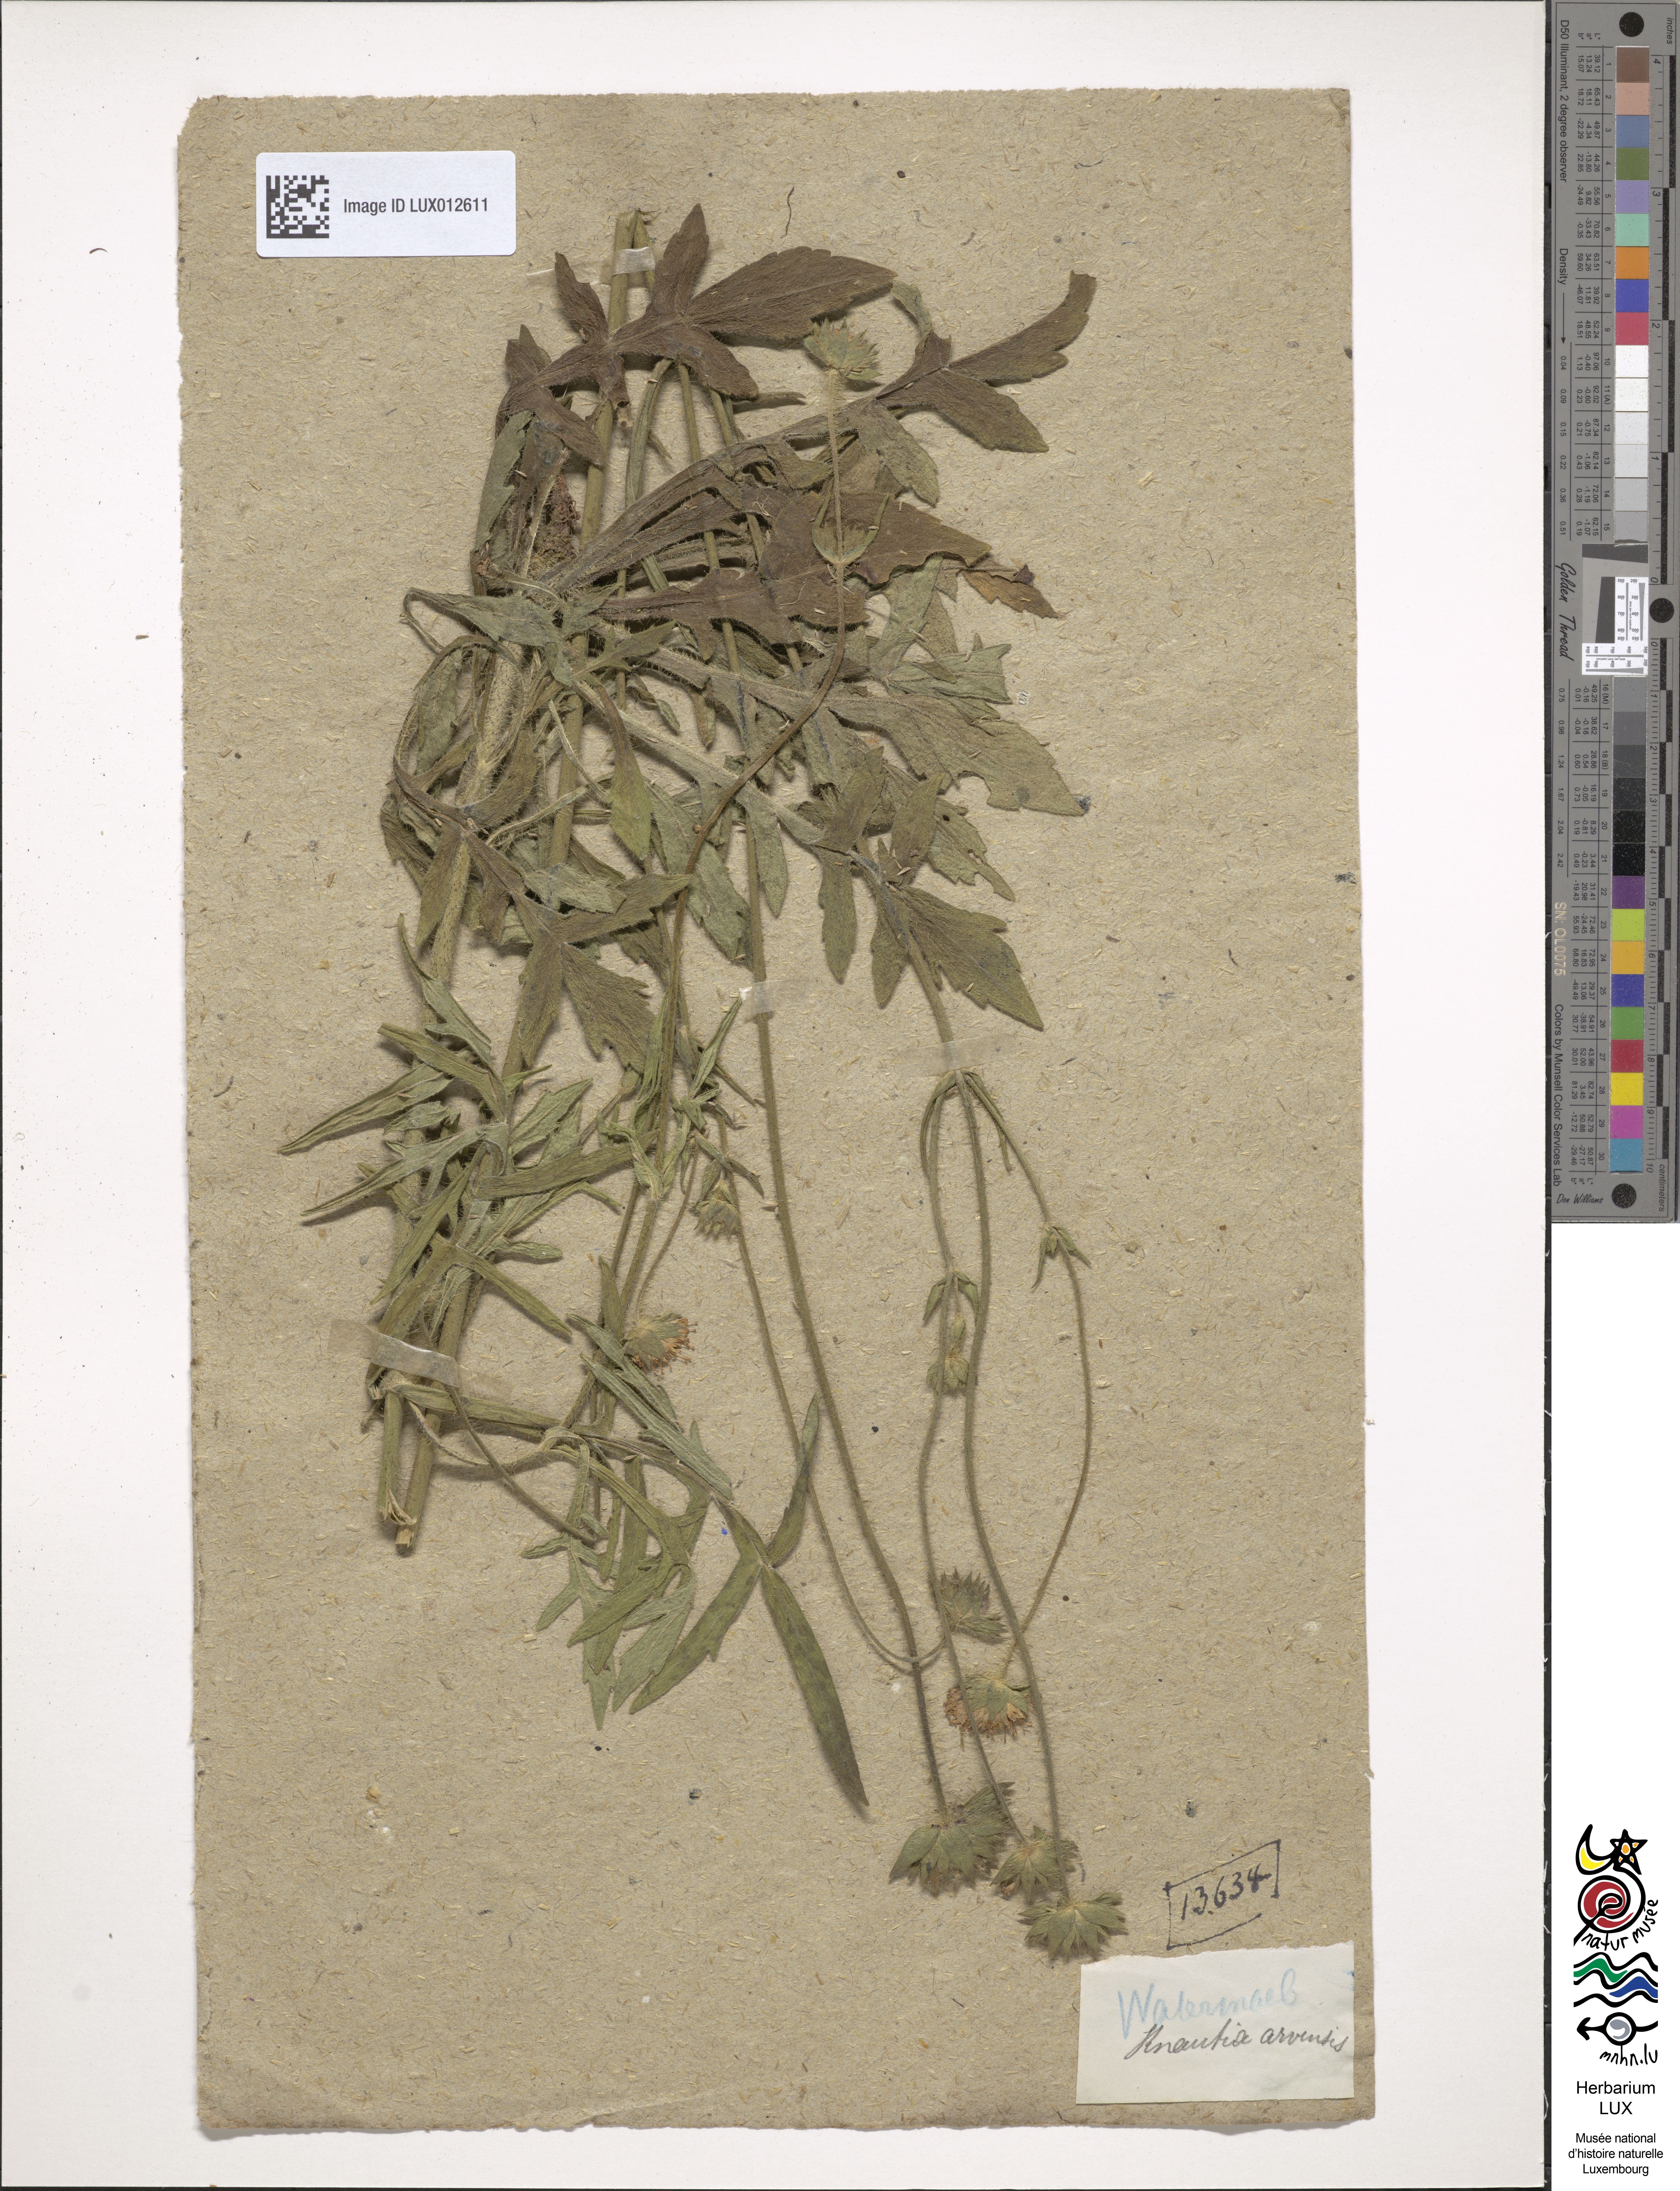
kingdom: Plantae
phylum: Tracheophyta
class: Magnoliopsida
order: Dipsacales
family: Caprifoliaceae
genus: Knautia
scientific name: Knautia arvensis
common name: Field scabiosa
